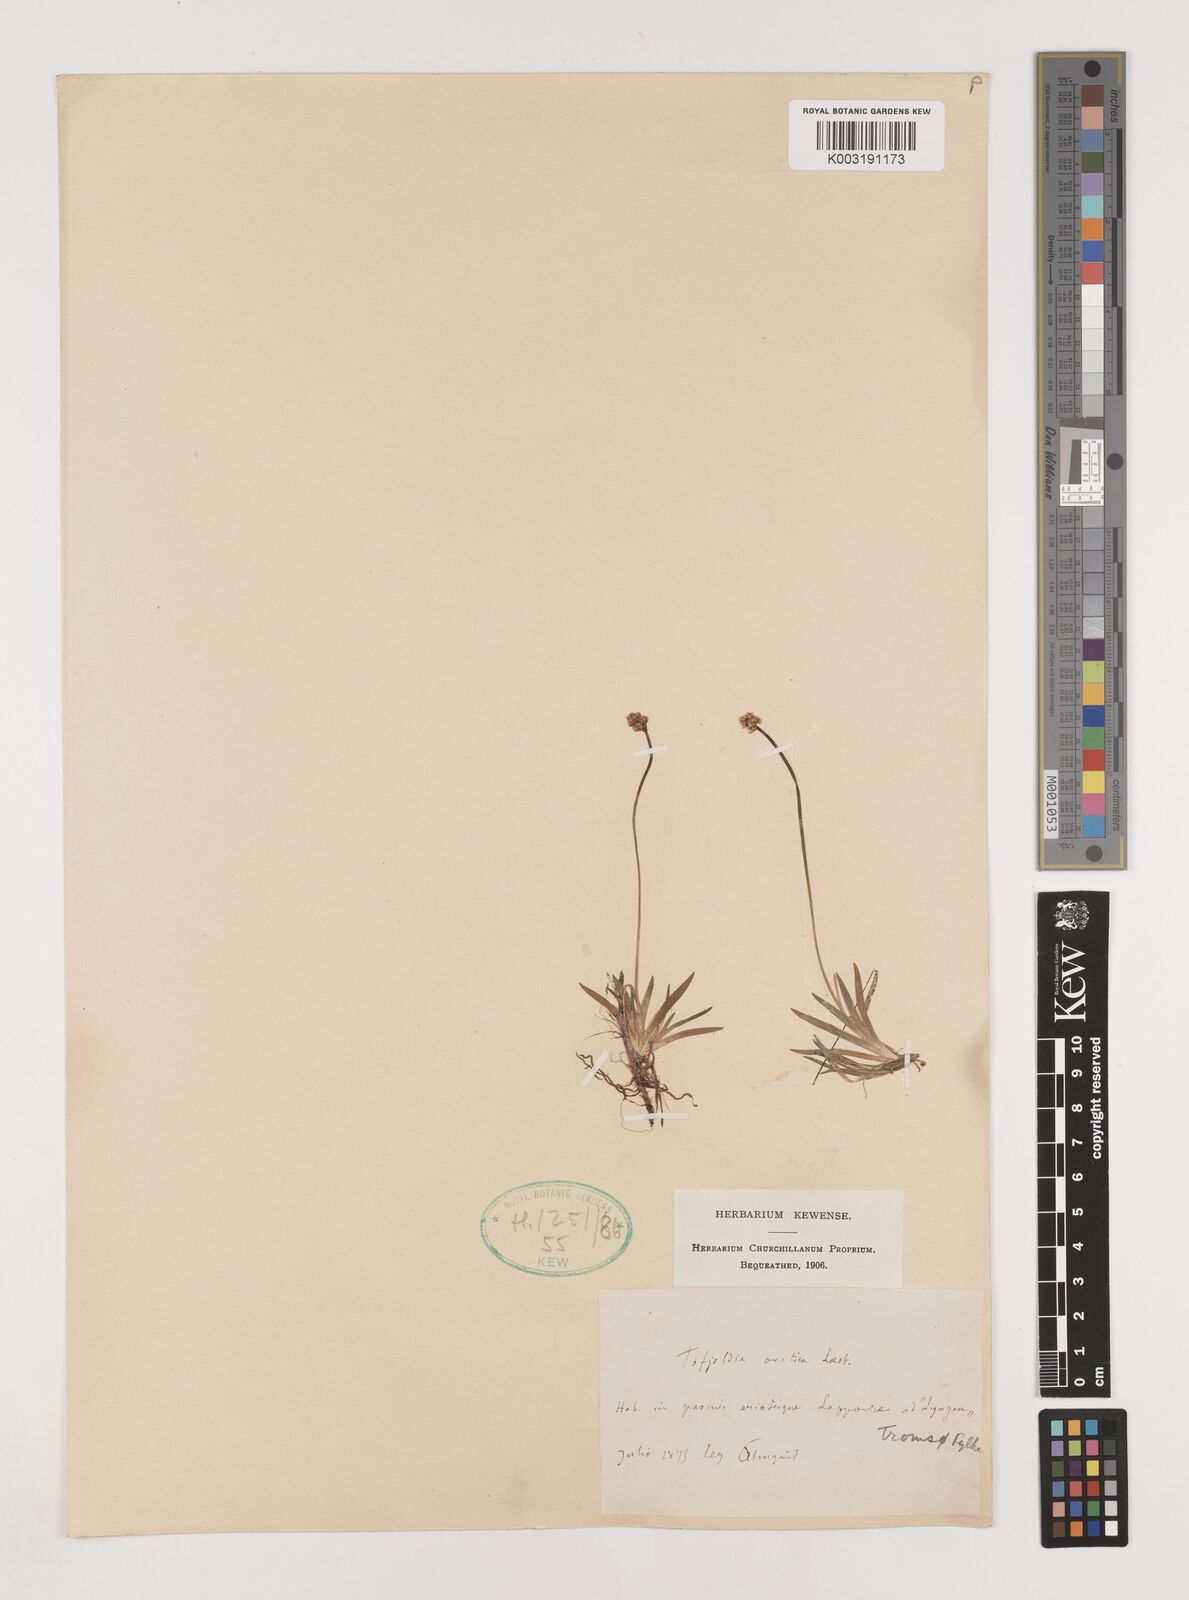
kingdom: Plantae
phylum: Tracheophyta
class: Liliopsida
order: Alismatales
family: Tofieldiaceae
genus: Tofieldia
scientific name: Tofieldia pusilla
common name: Scottish false asphodel
